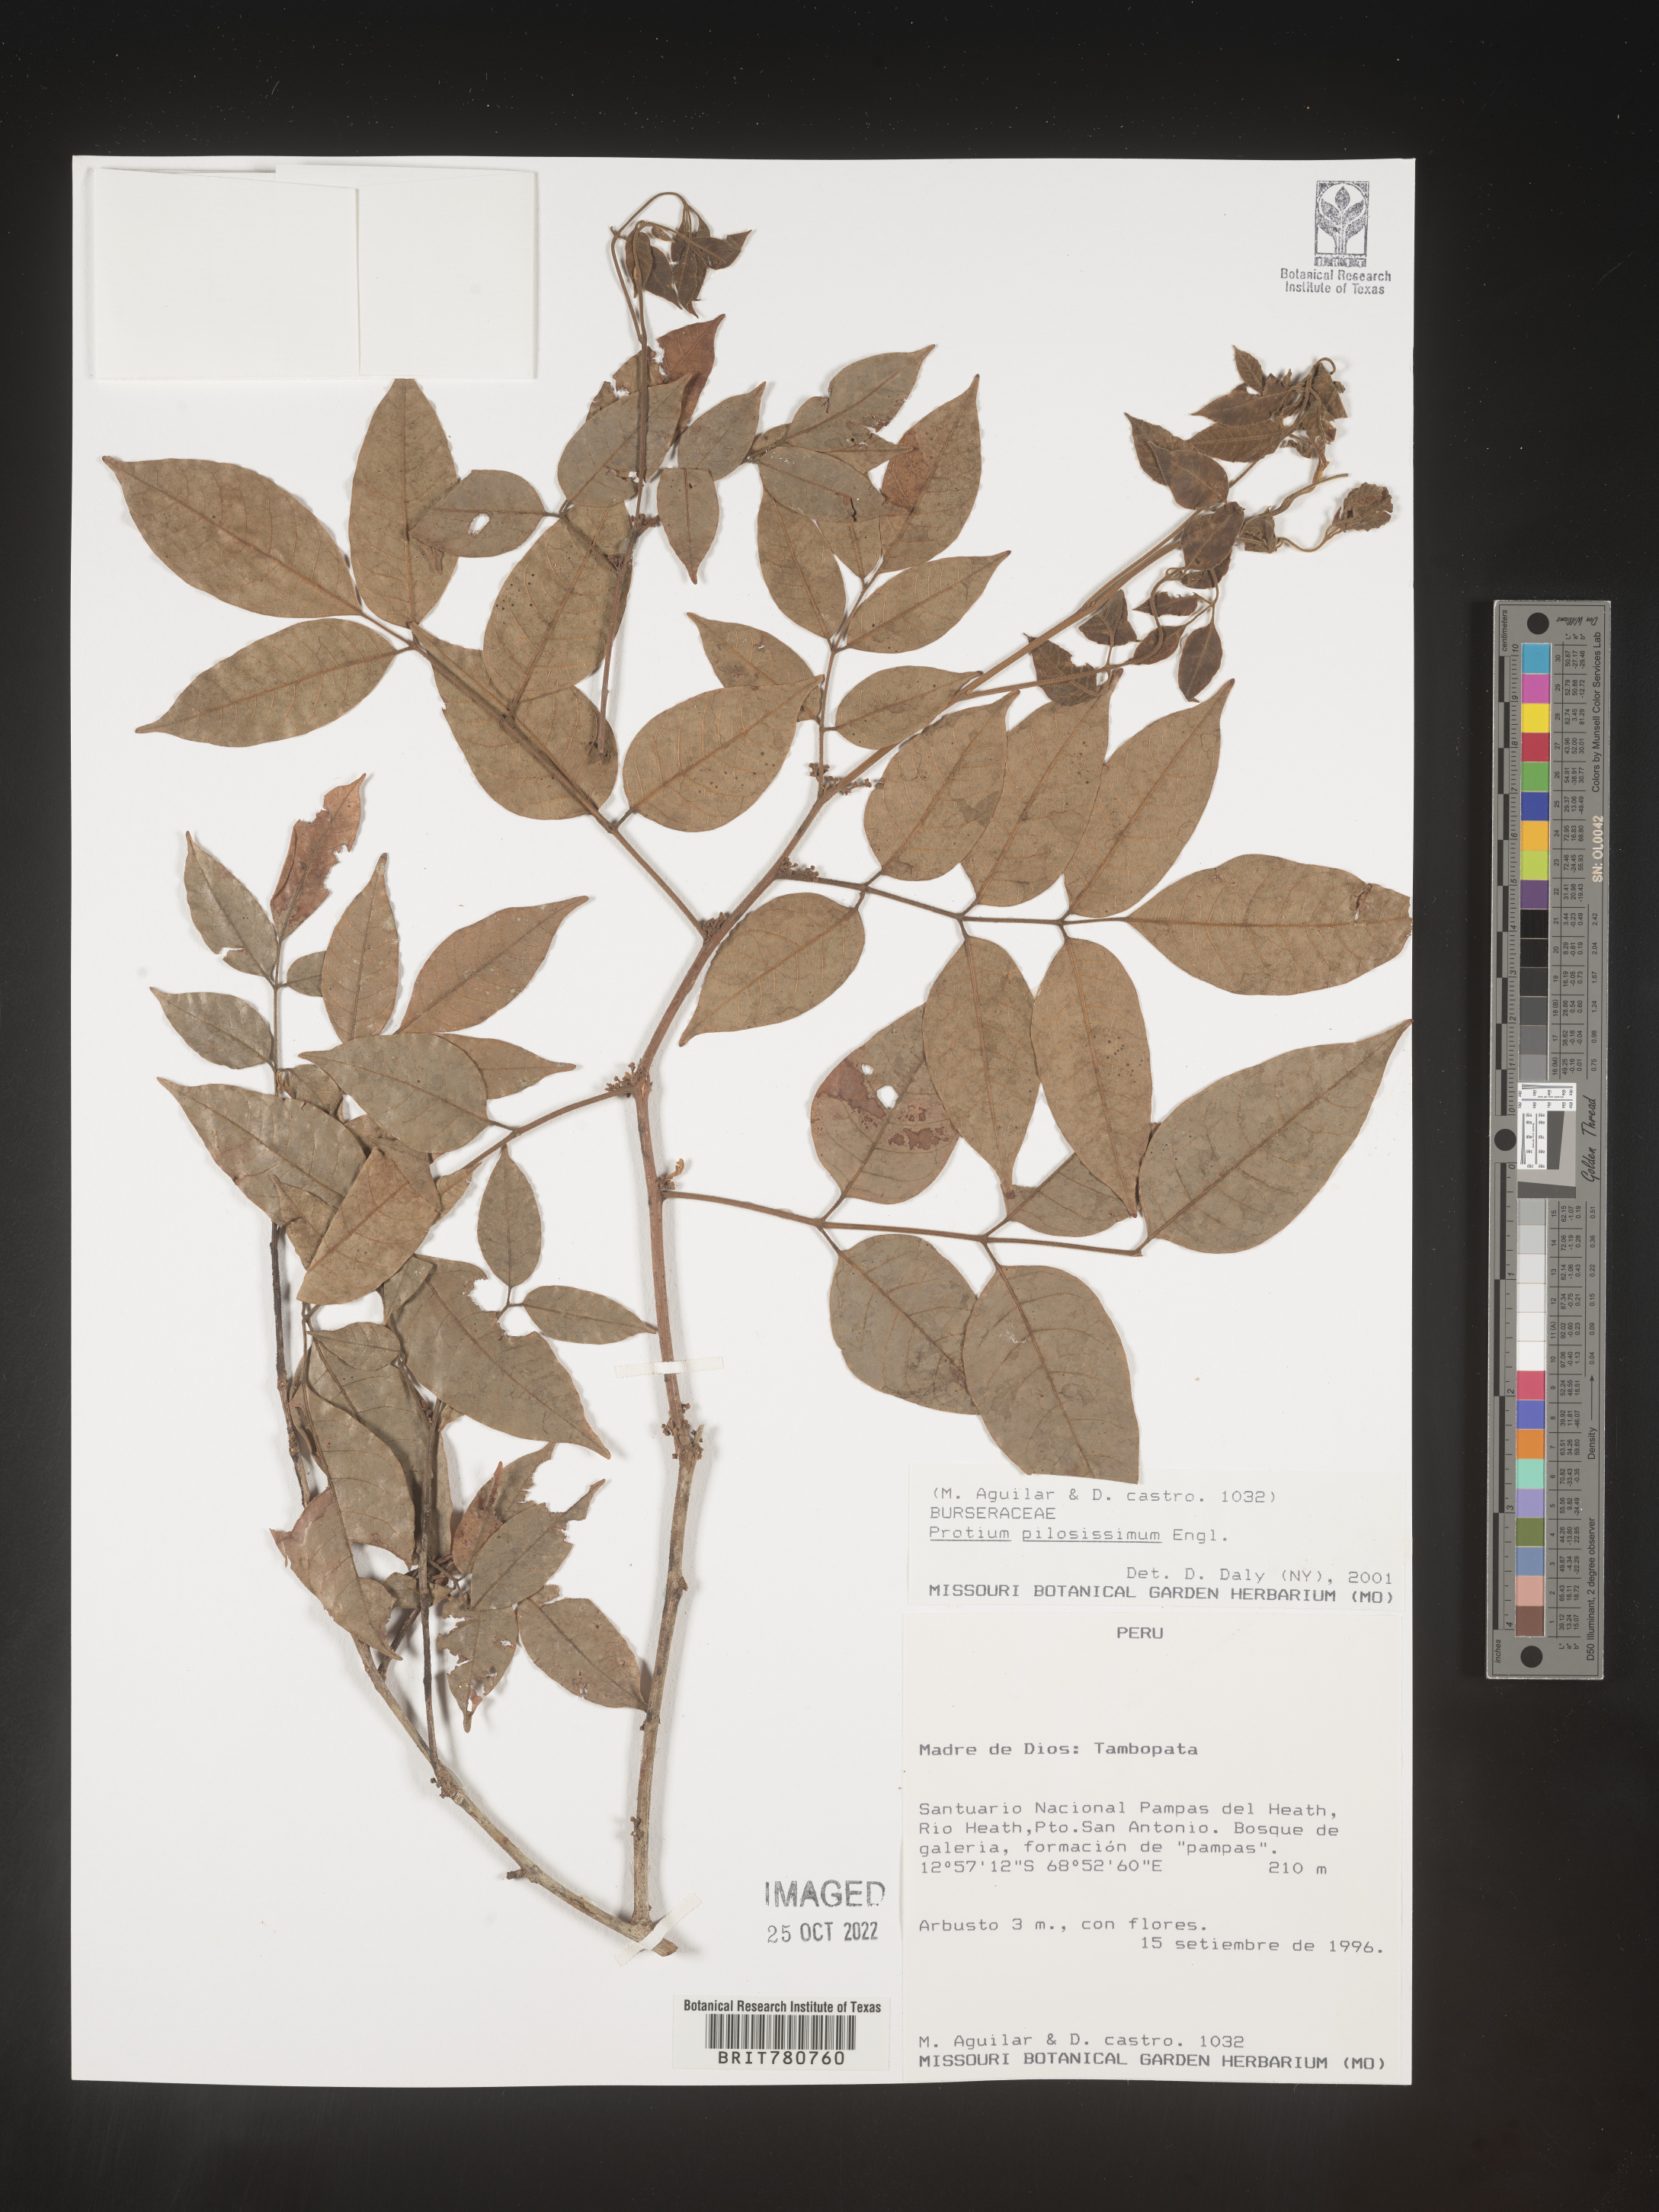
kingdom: Plantae
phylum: Tracheophyta
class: Magnoliopsida
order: Sapindales
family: Burseraceae
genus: Protium
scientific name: Protium
